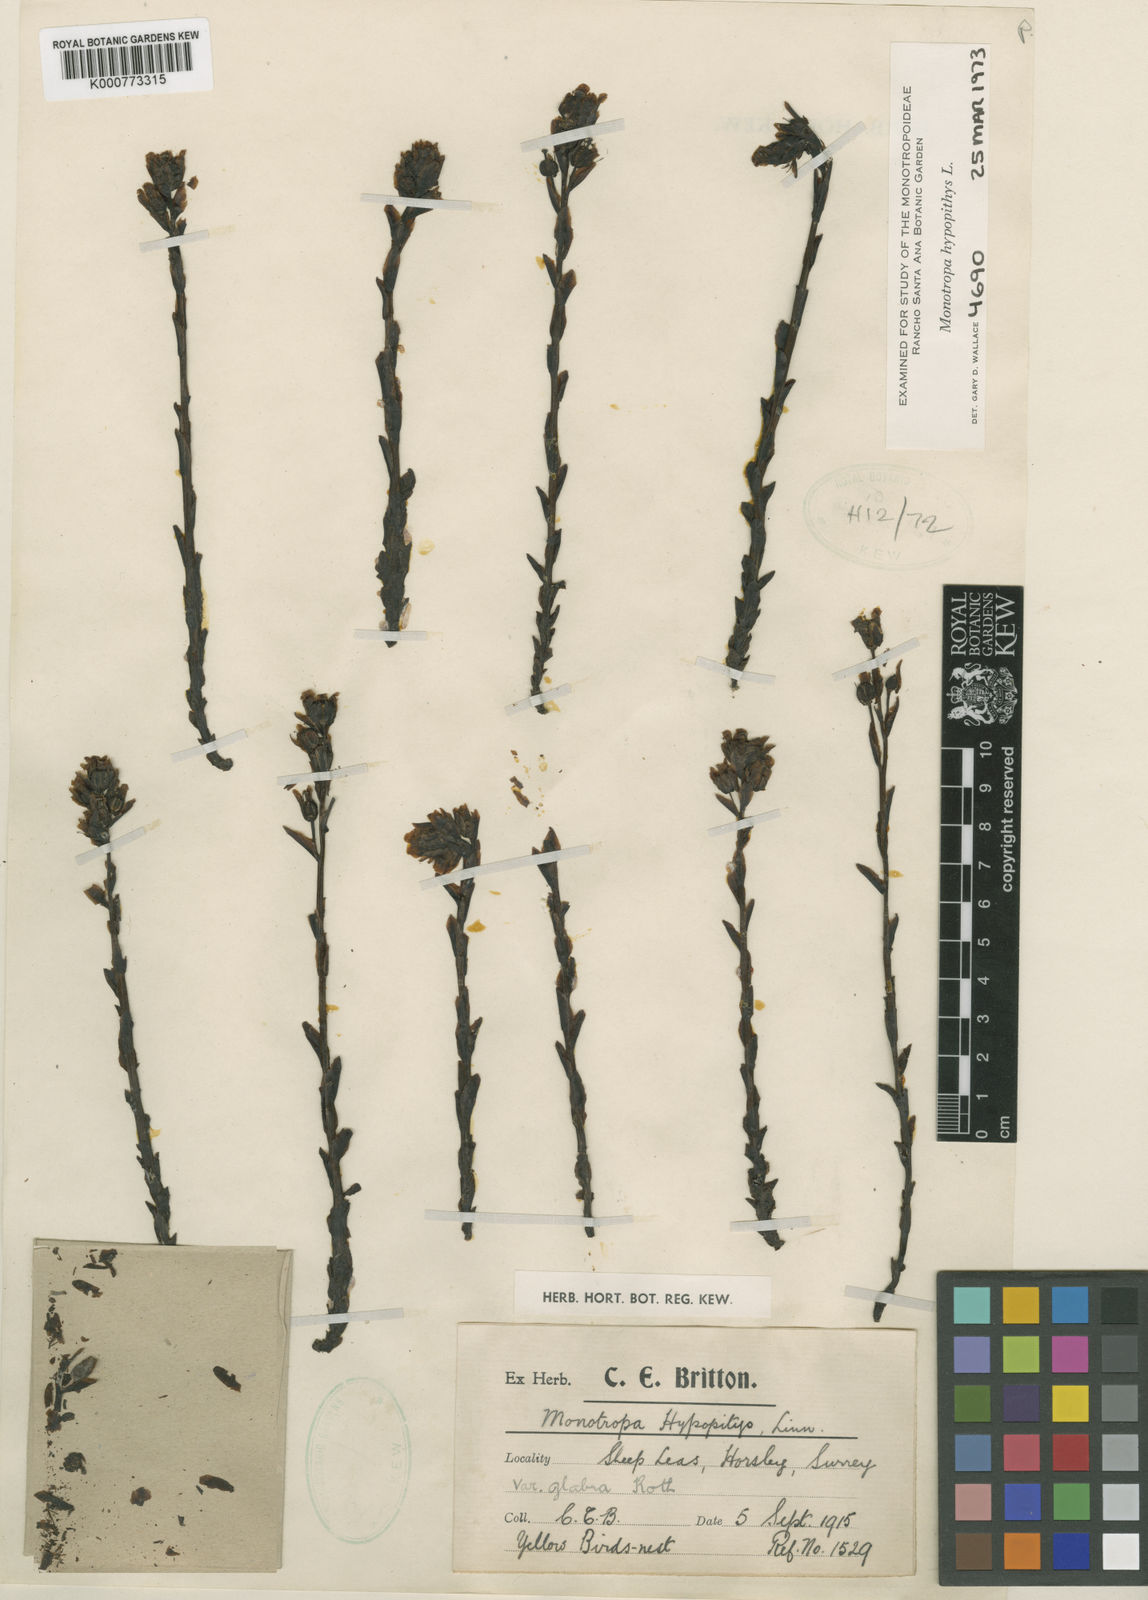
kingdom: Plantae
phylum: Tracheophyta
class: Magnoliopsida
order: Ericales
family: Ericaceae
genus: Monotropa
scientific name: Monotropa
